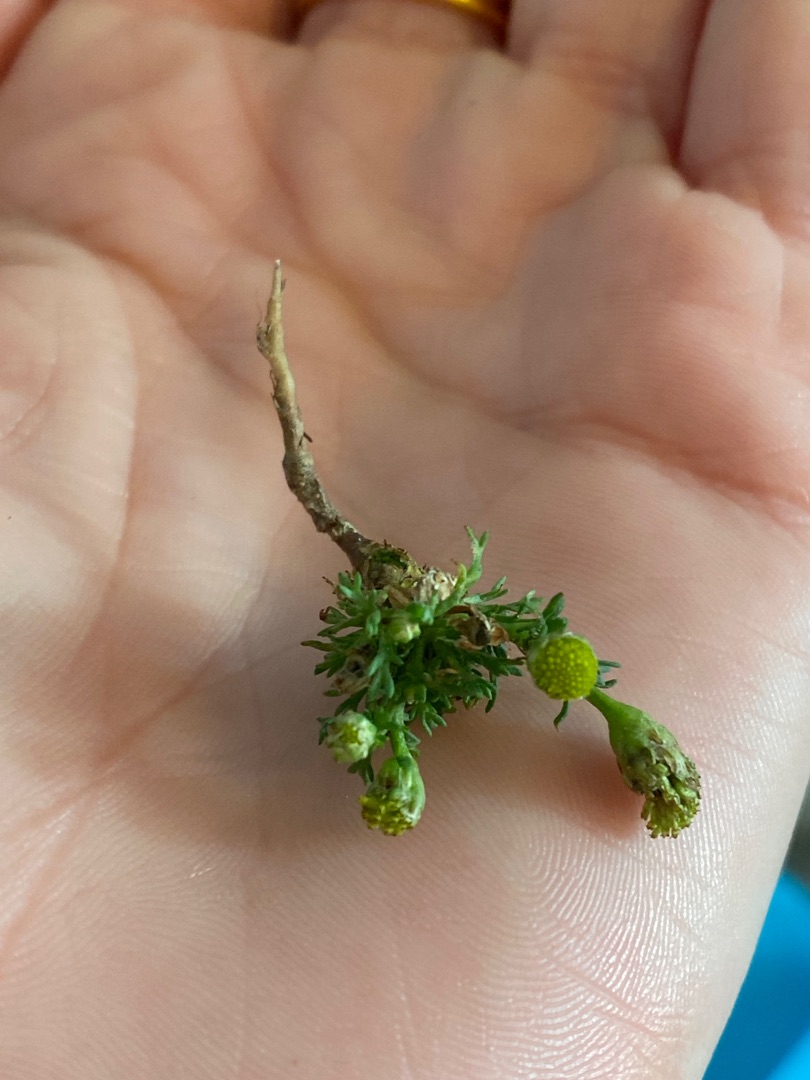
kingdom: Plantae
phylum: Tracheophyta
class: Magnoliopsida
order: Asterales
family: Asteraceae
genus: Matricaria
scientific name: Matricaria discoidea
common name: Skive-kamille
